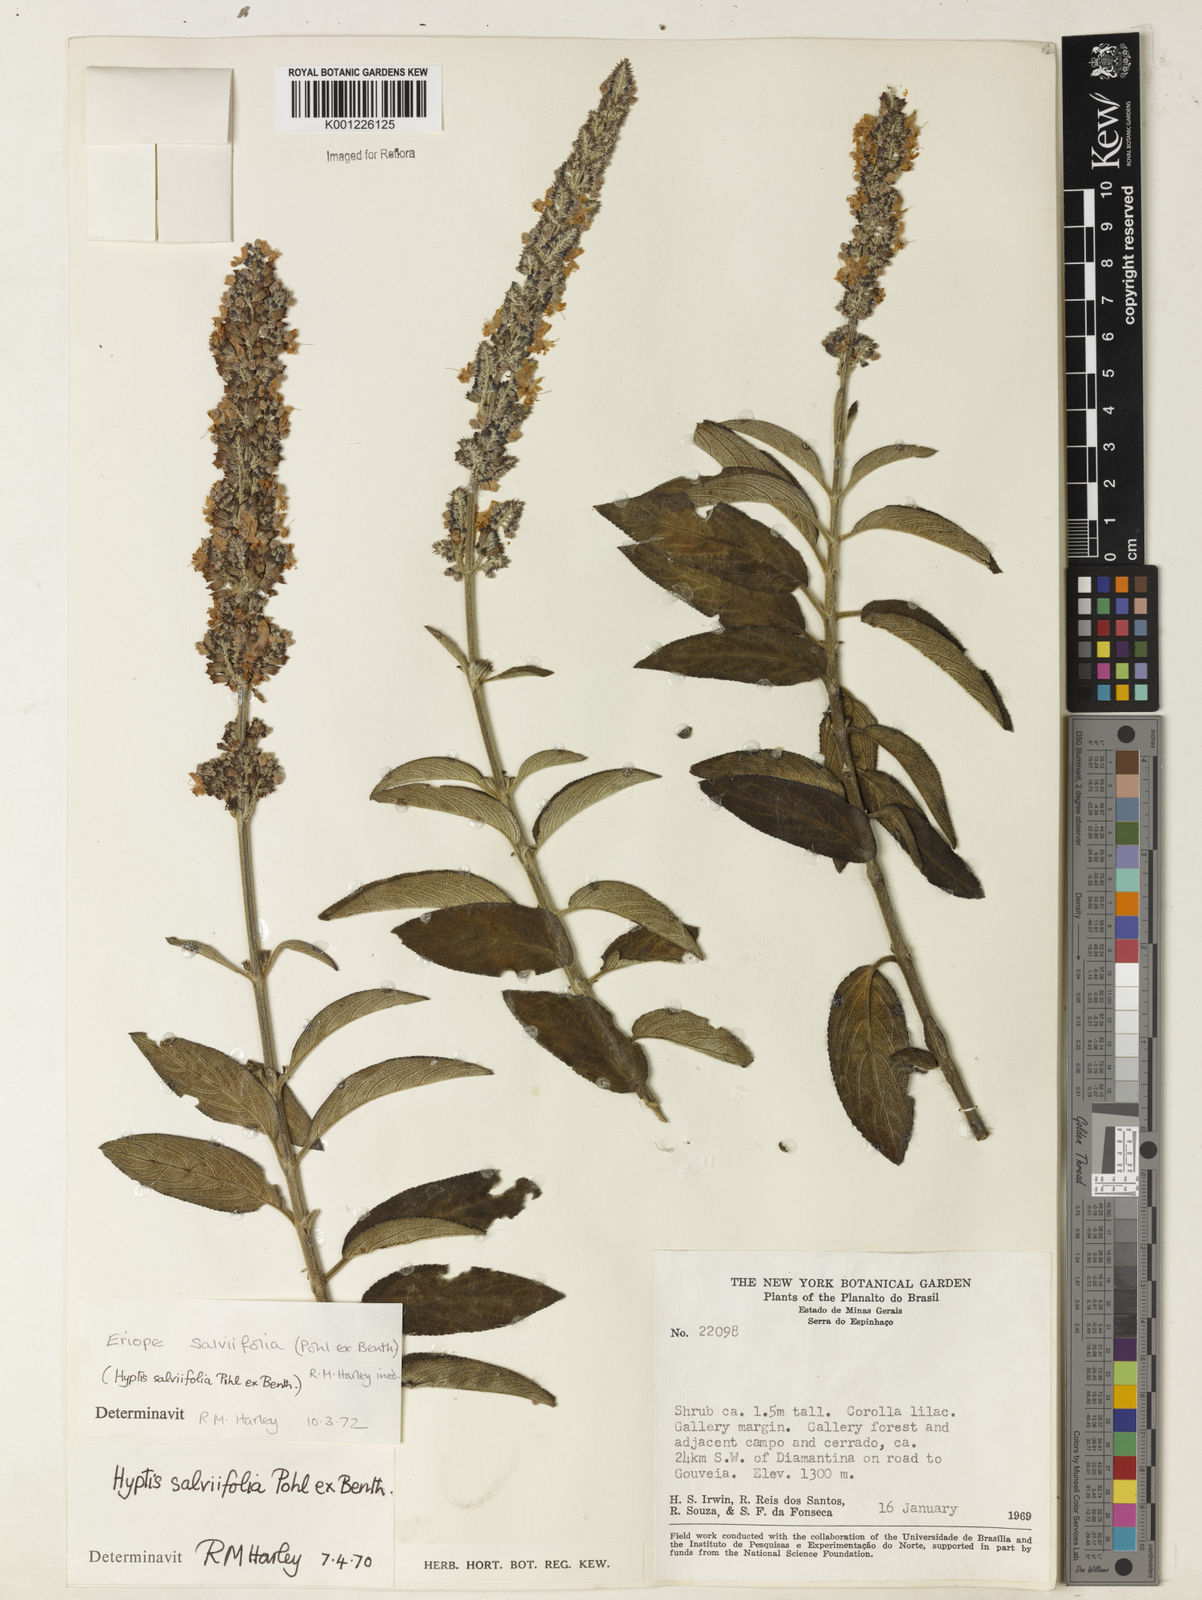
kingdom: Plantae
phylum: Tracheophyta
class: Magnoliopsida
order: Lamiales
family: Lamiaceae
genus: Eriope
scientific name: Eriope salviifolia
